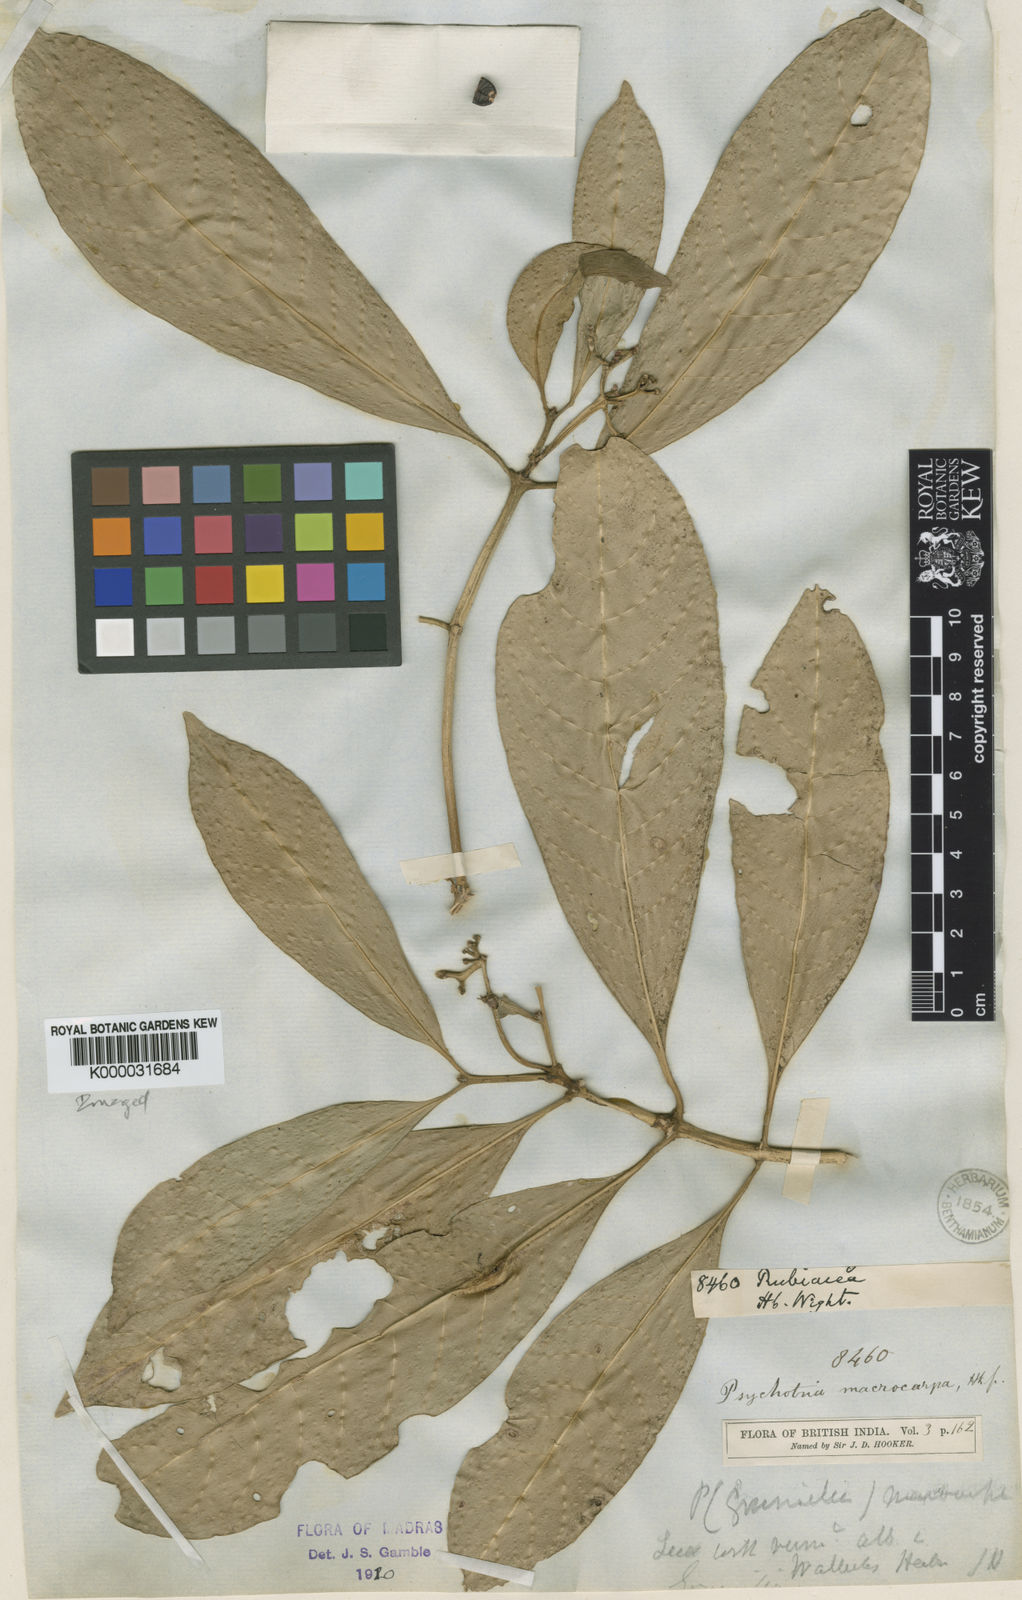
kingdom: Plantae
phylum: Tracheophyta
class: Magnoliopsida
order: Gentianales
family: Rubiaceae
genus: Psychotria
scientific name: Psychotria macrocarpa
